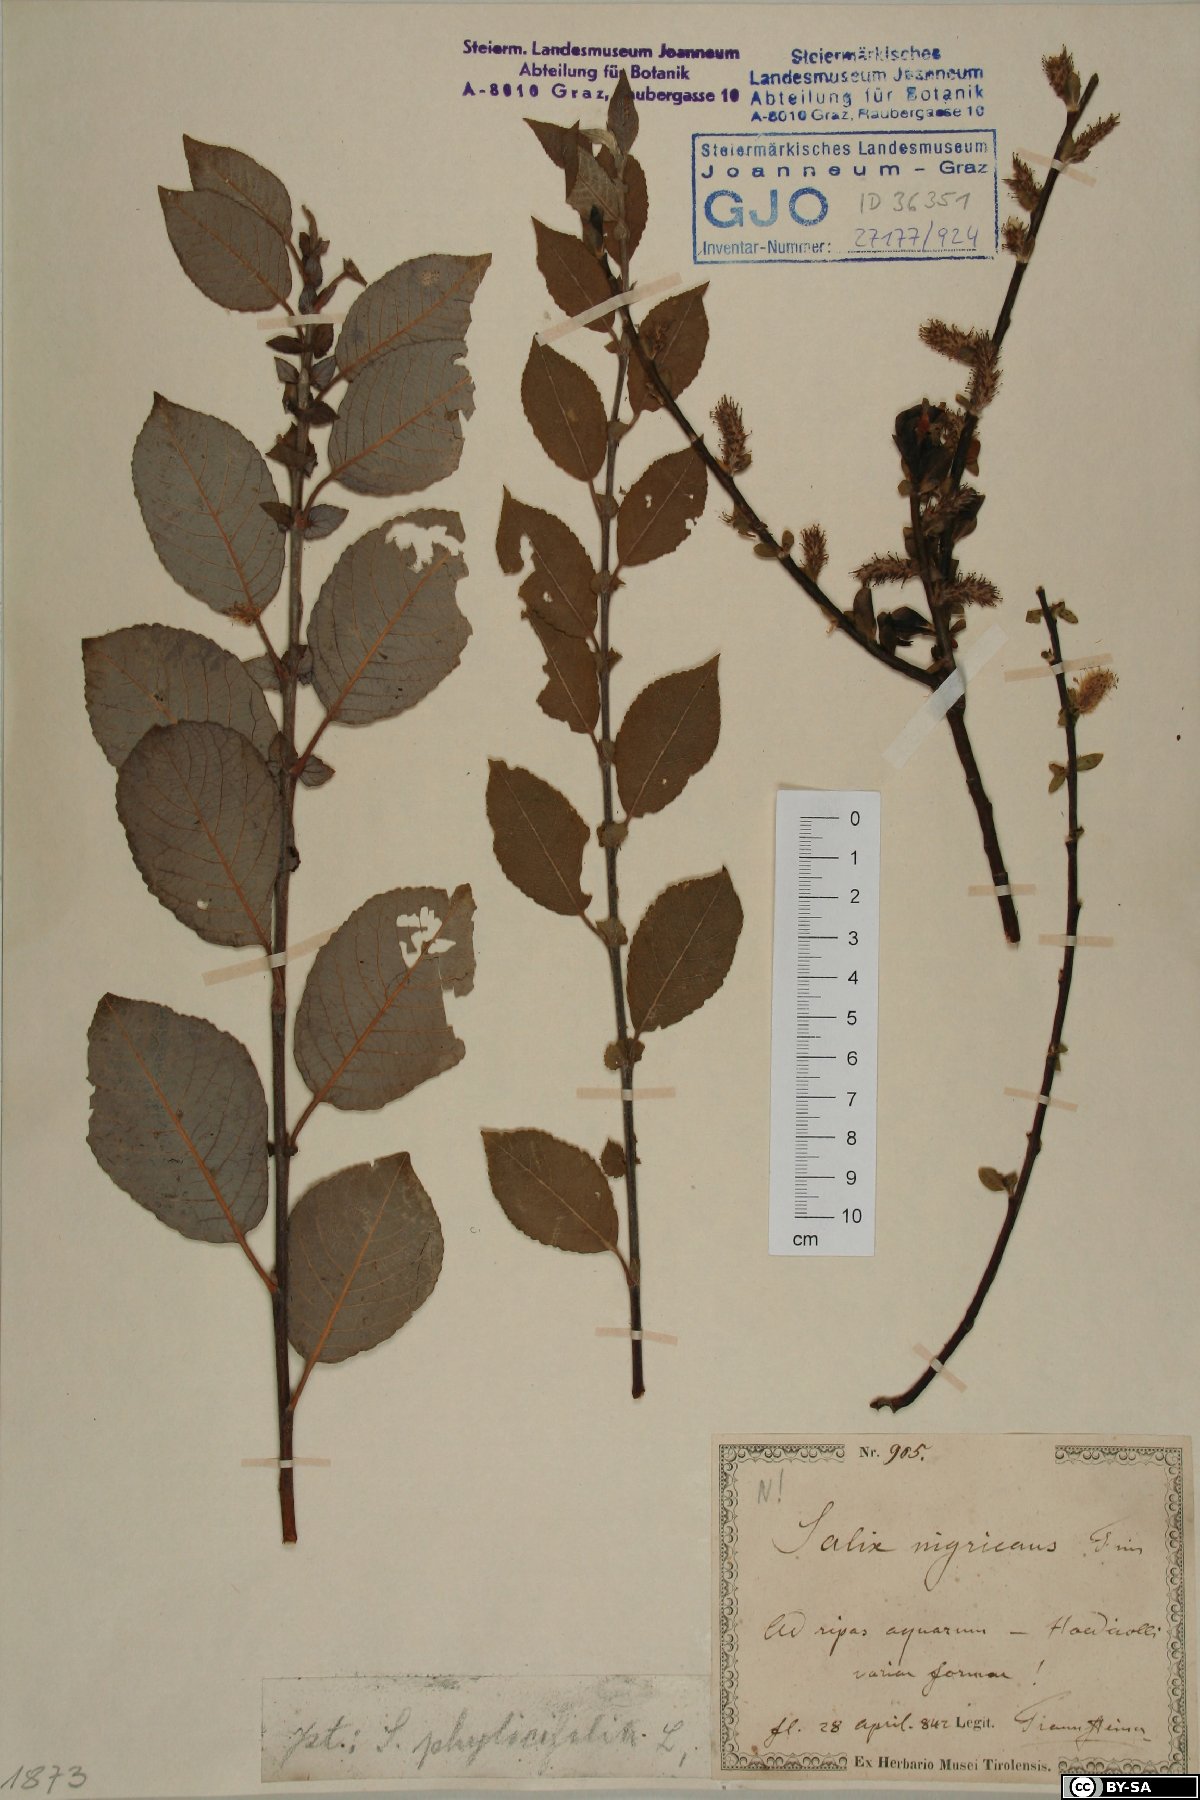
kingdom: Plantae
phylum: Tracheophyta
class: Magnoliopsida
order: Malpighiales
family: Salicaceae
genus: Salix
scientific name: Salix myrsinifolia
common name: Dark-leaved willow
